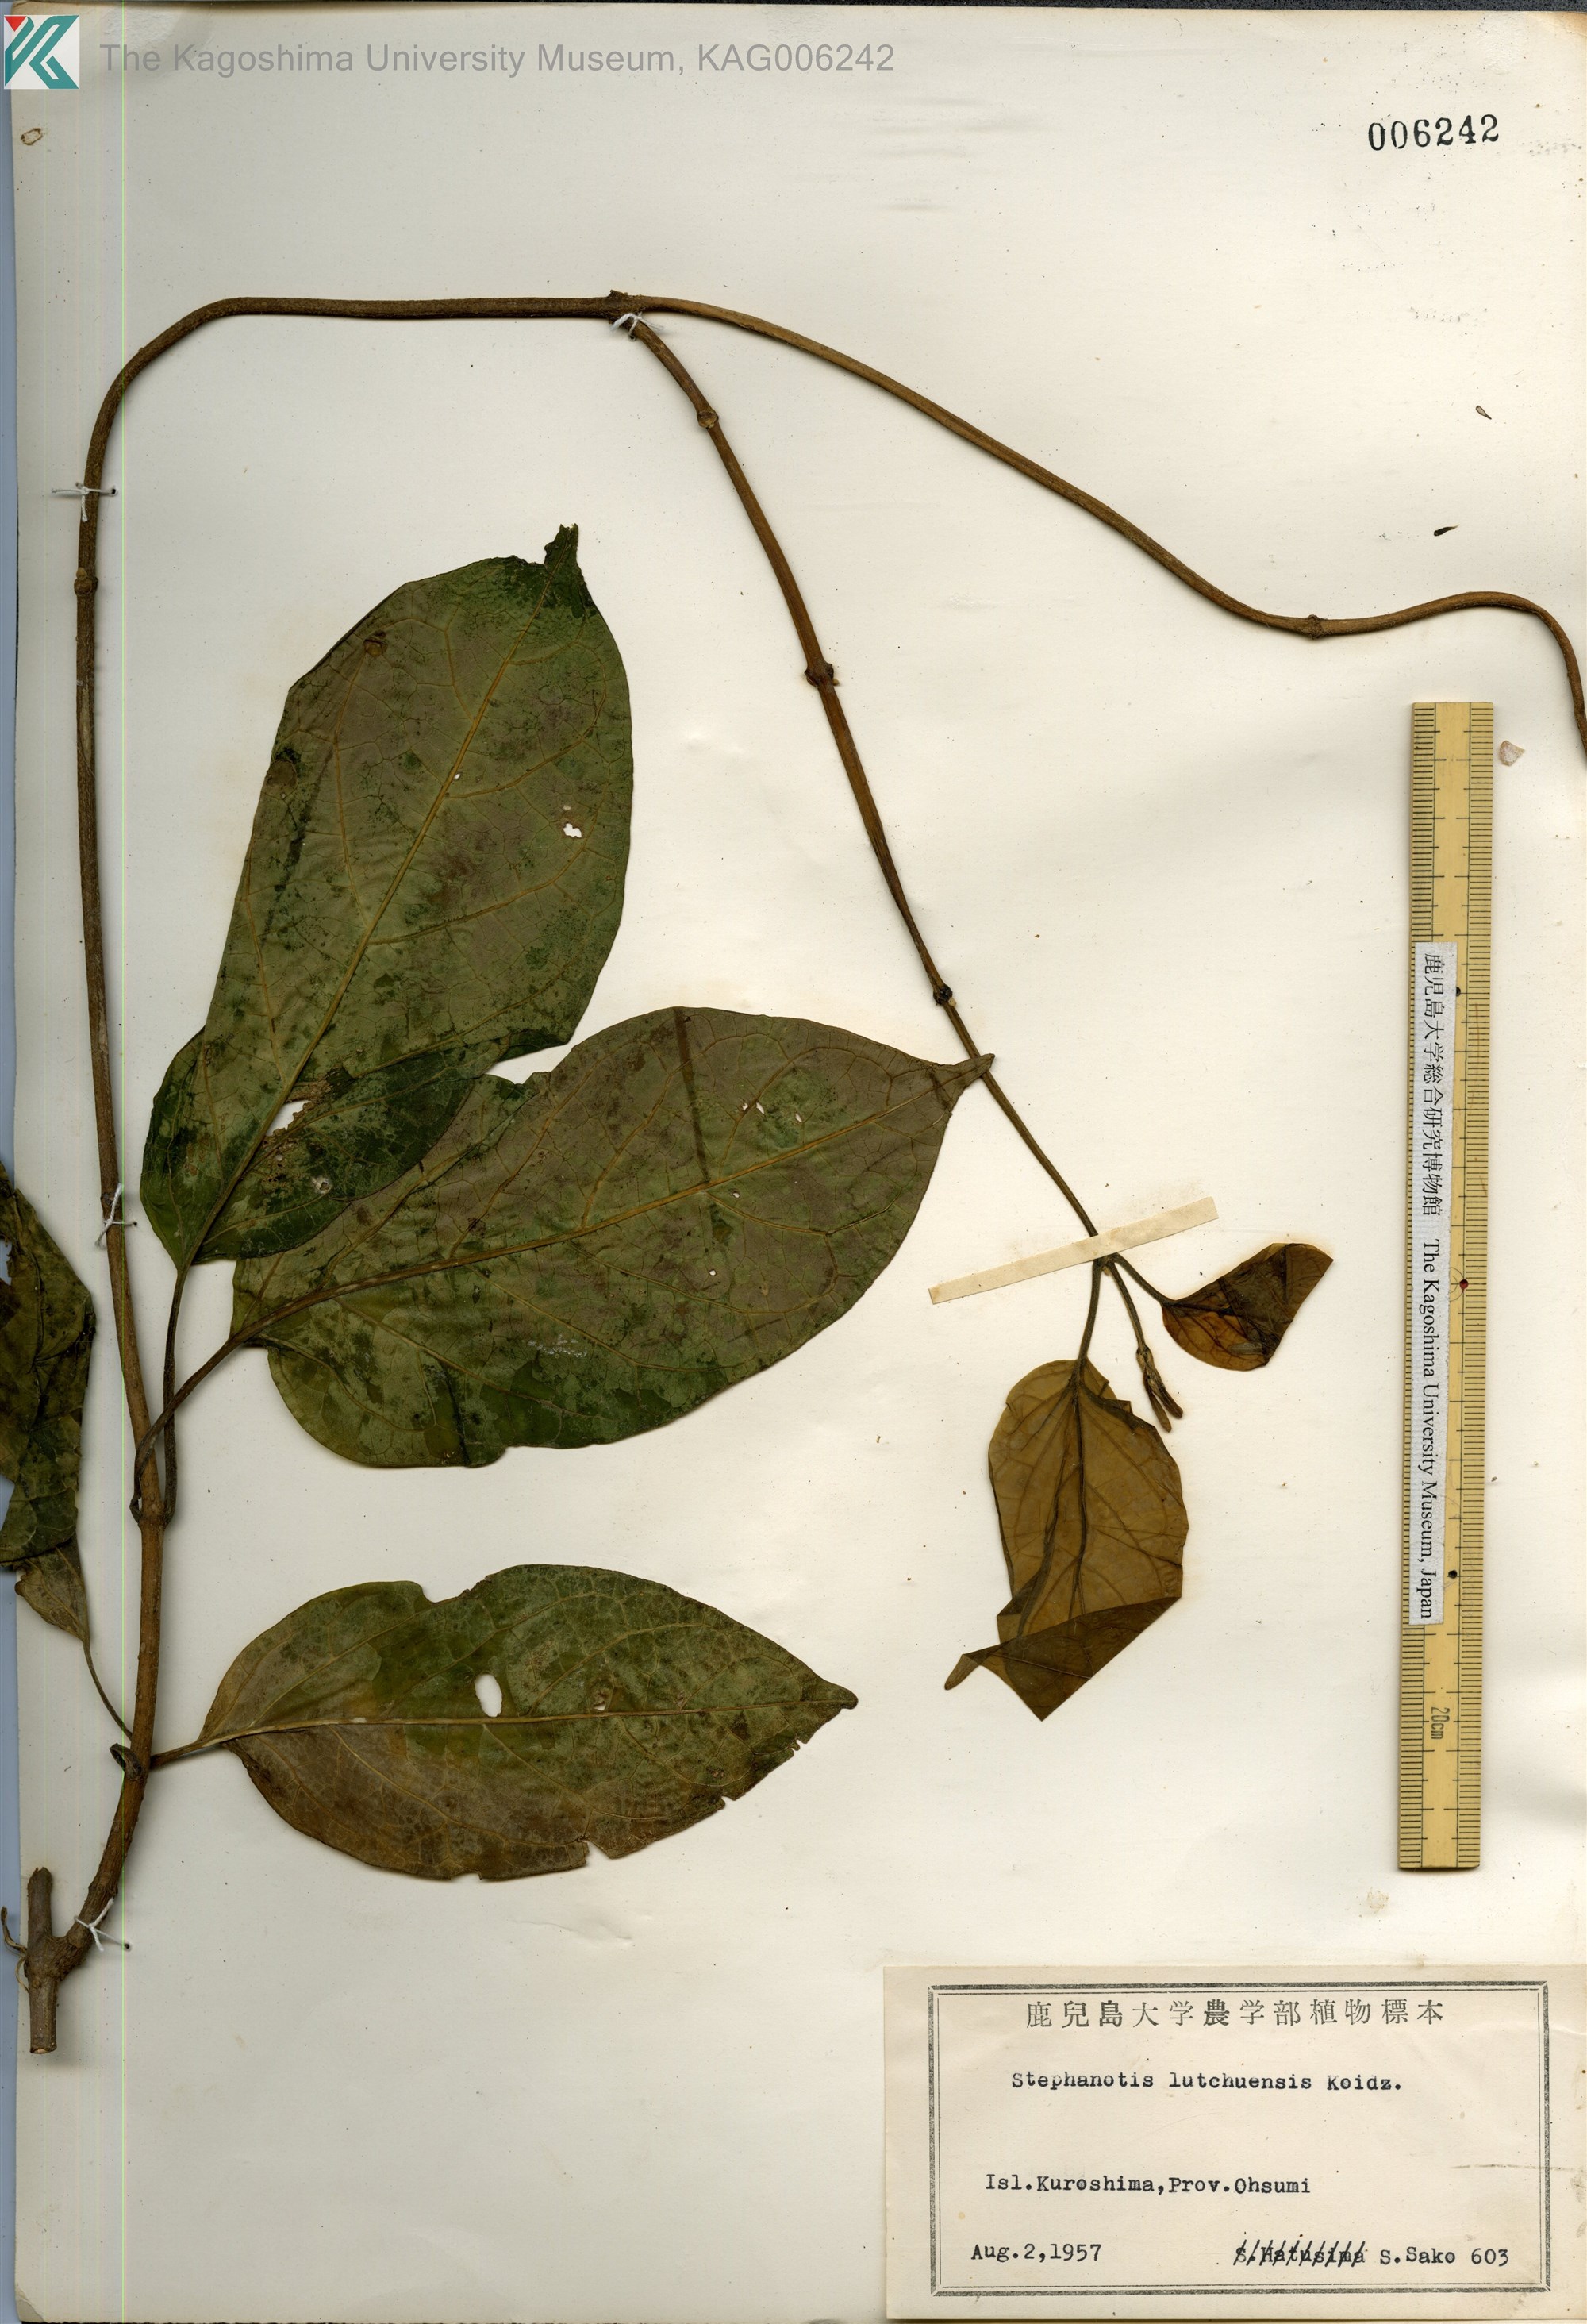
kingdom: Plantae
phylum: Tracheophyta
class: Magnoliopsida
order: Gentianales
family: Apocynaceae
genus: Jasminanthes
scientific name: Jasminanthes mucronata
